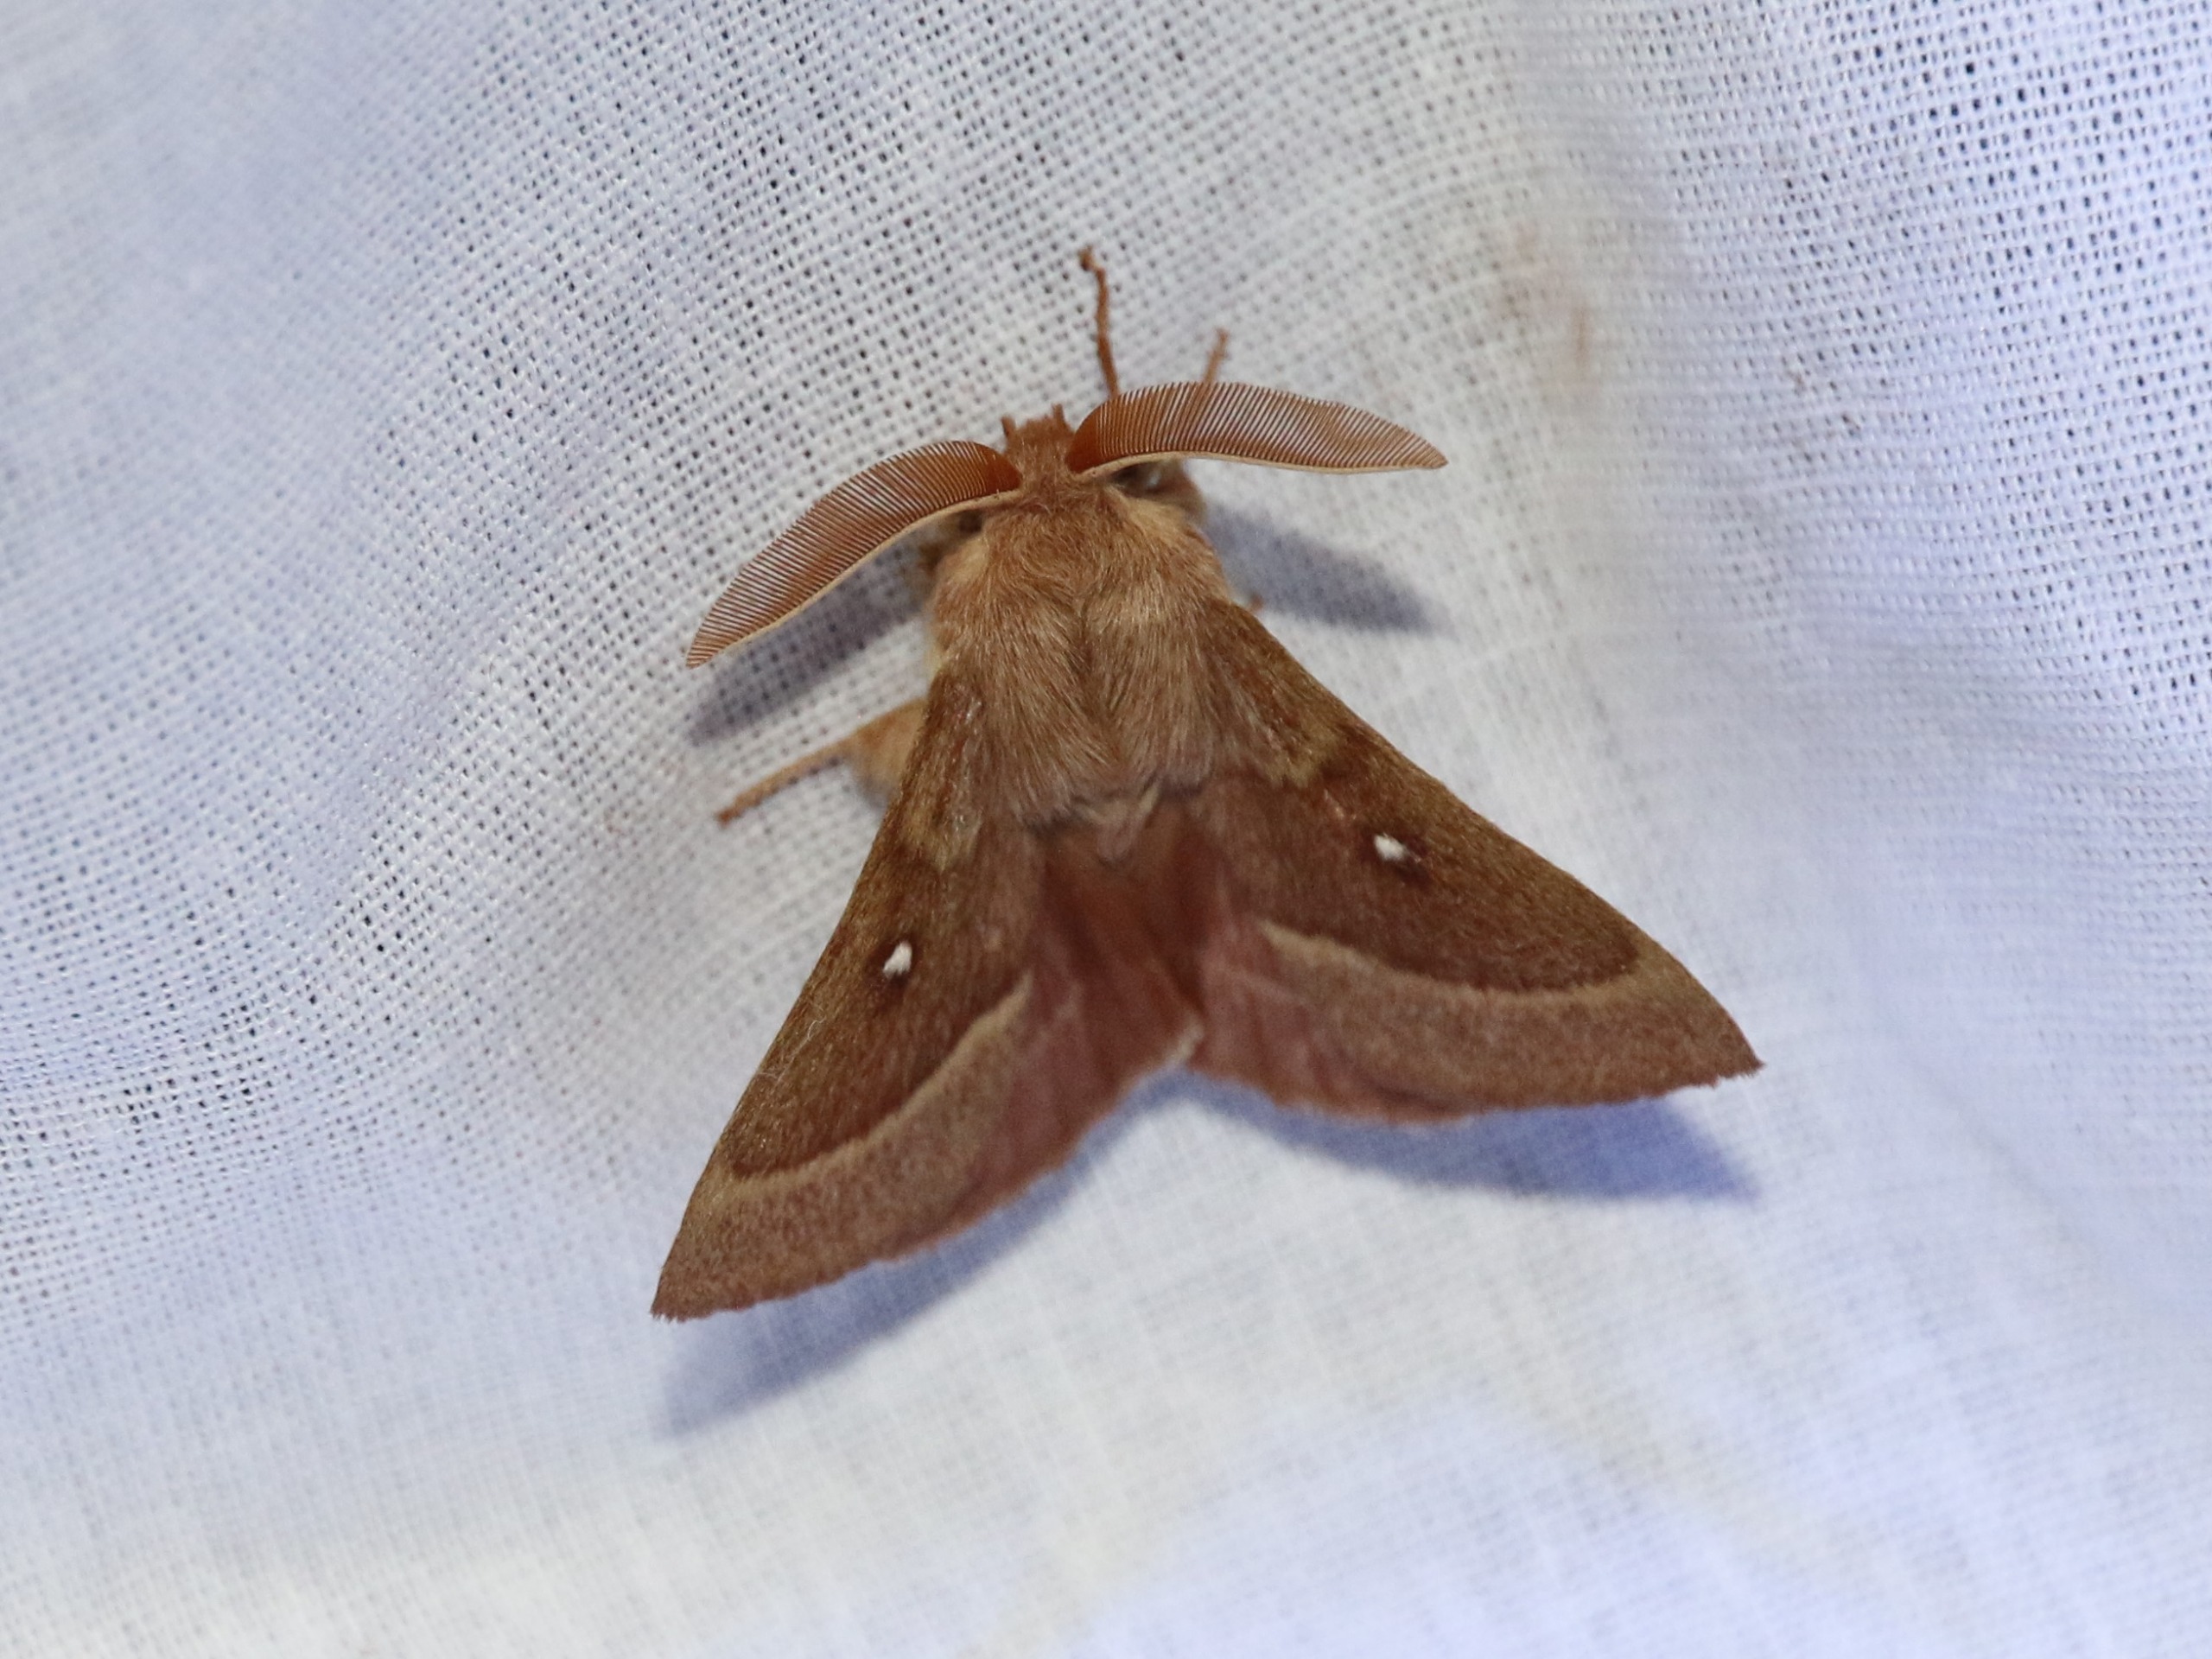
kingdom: Animalia
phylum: Arthropoda
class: Insecta
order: Lepidoptera
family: Lasiocampidae
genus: Lasiocampa
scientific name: Lasiocampa trifolii
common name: Kløverspinder
